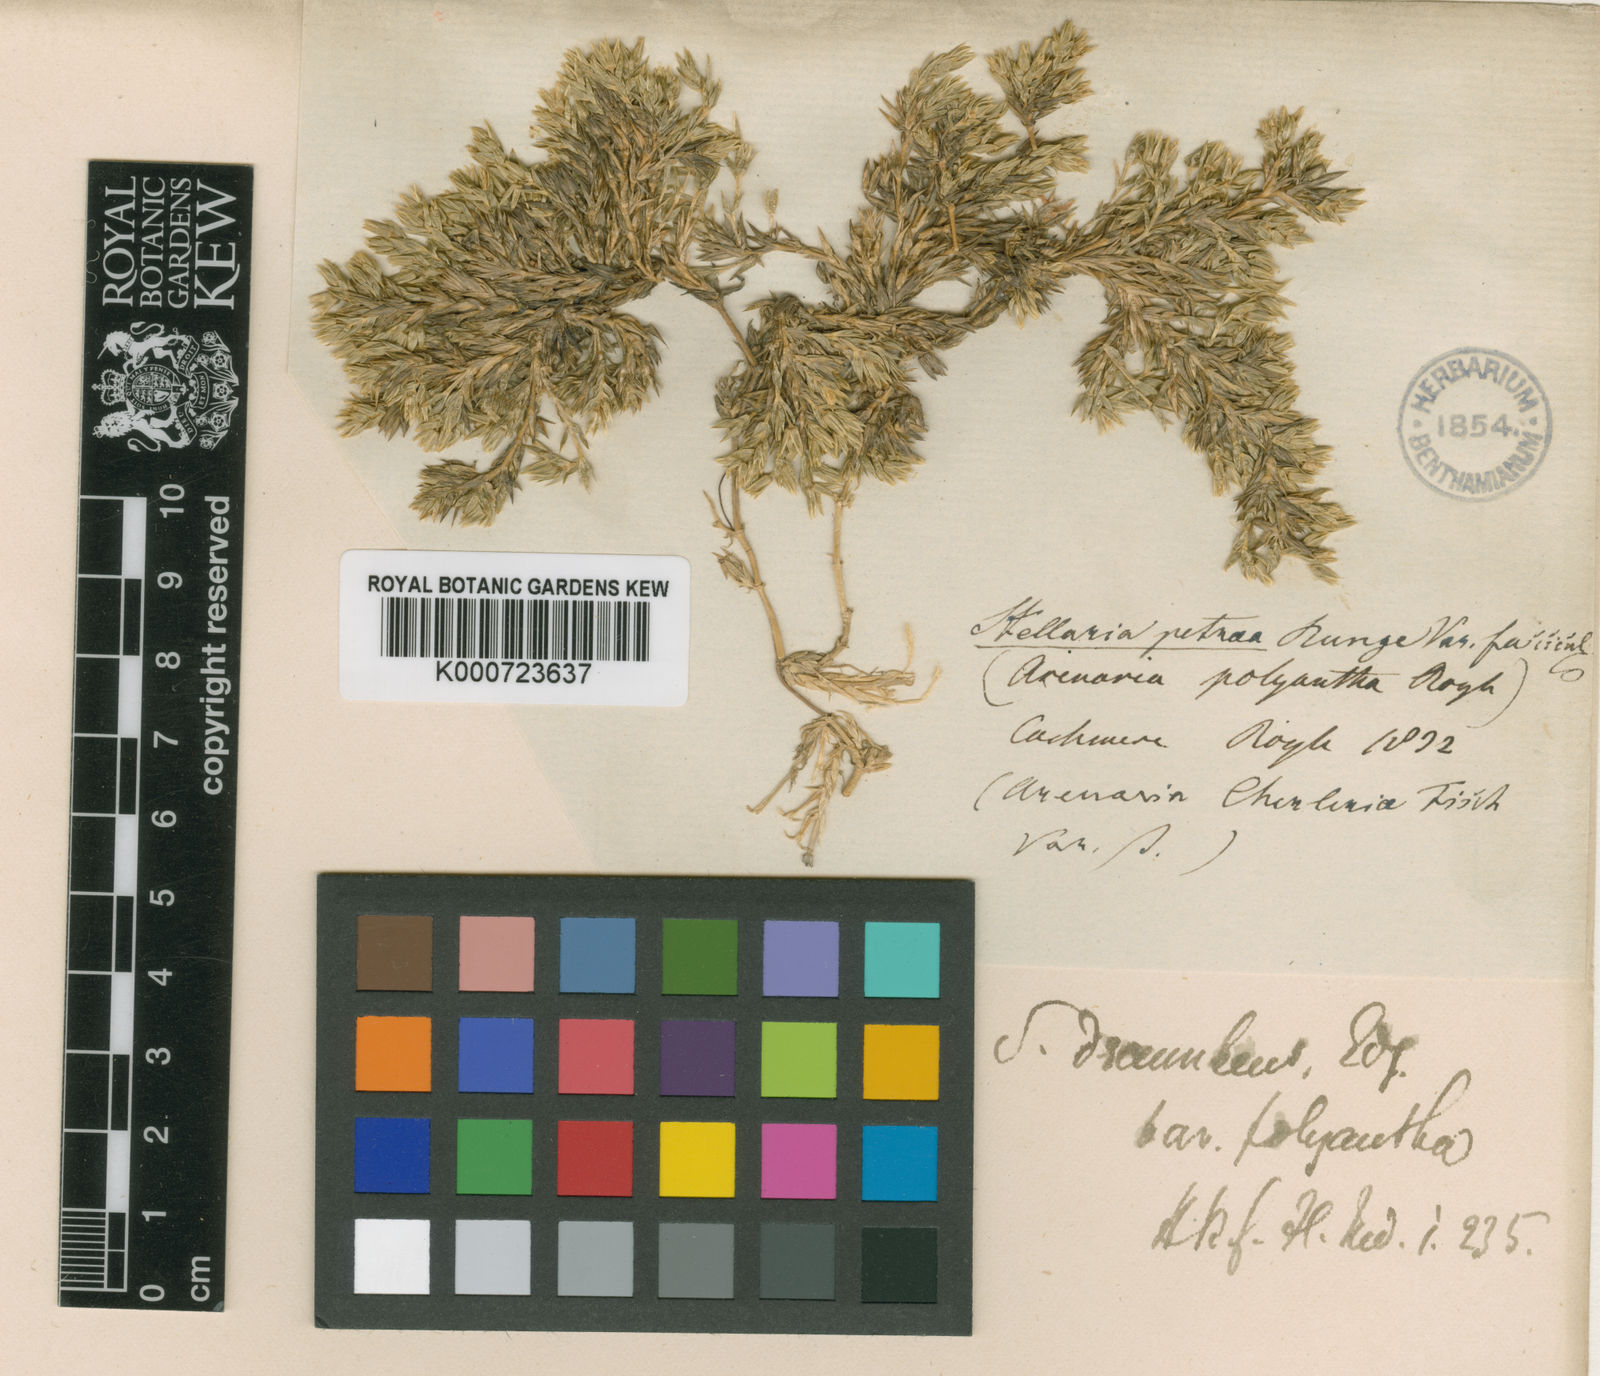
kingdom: Plantae
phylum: Tracheophyta
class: Magnoliopsida
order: Caryophyllales
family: Caryophyllaceae
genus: Stellaria
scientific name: Stellaria decumbens
